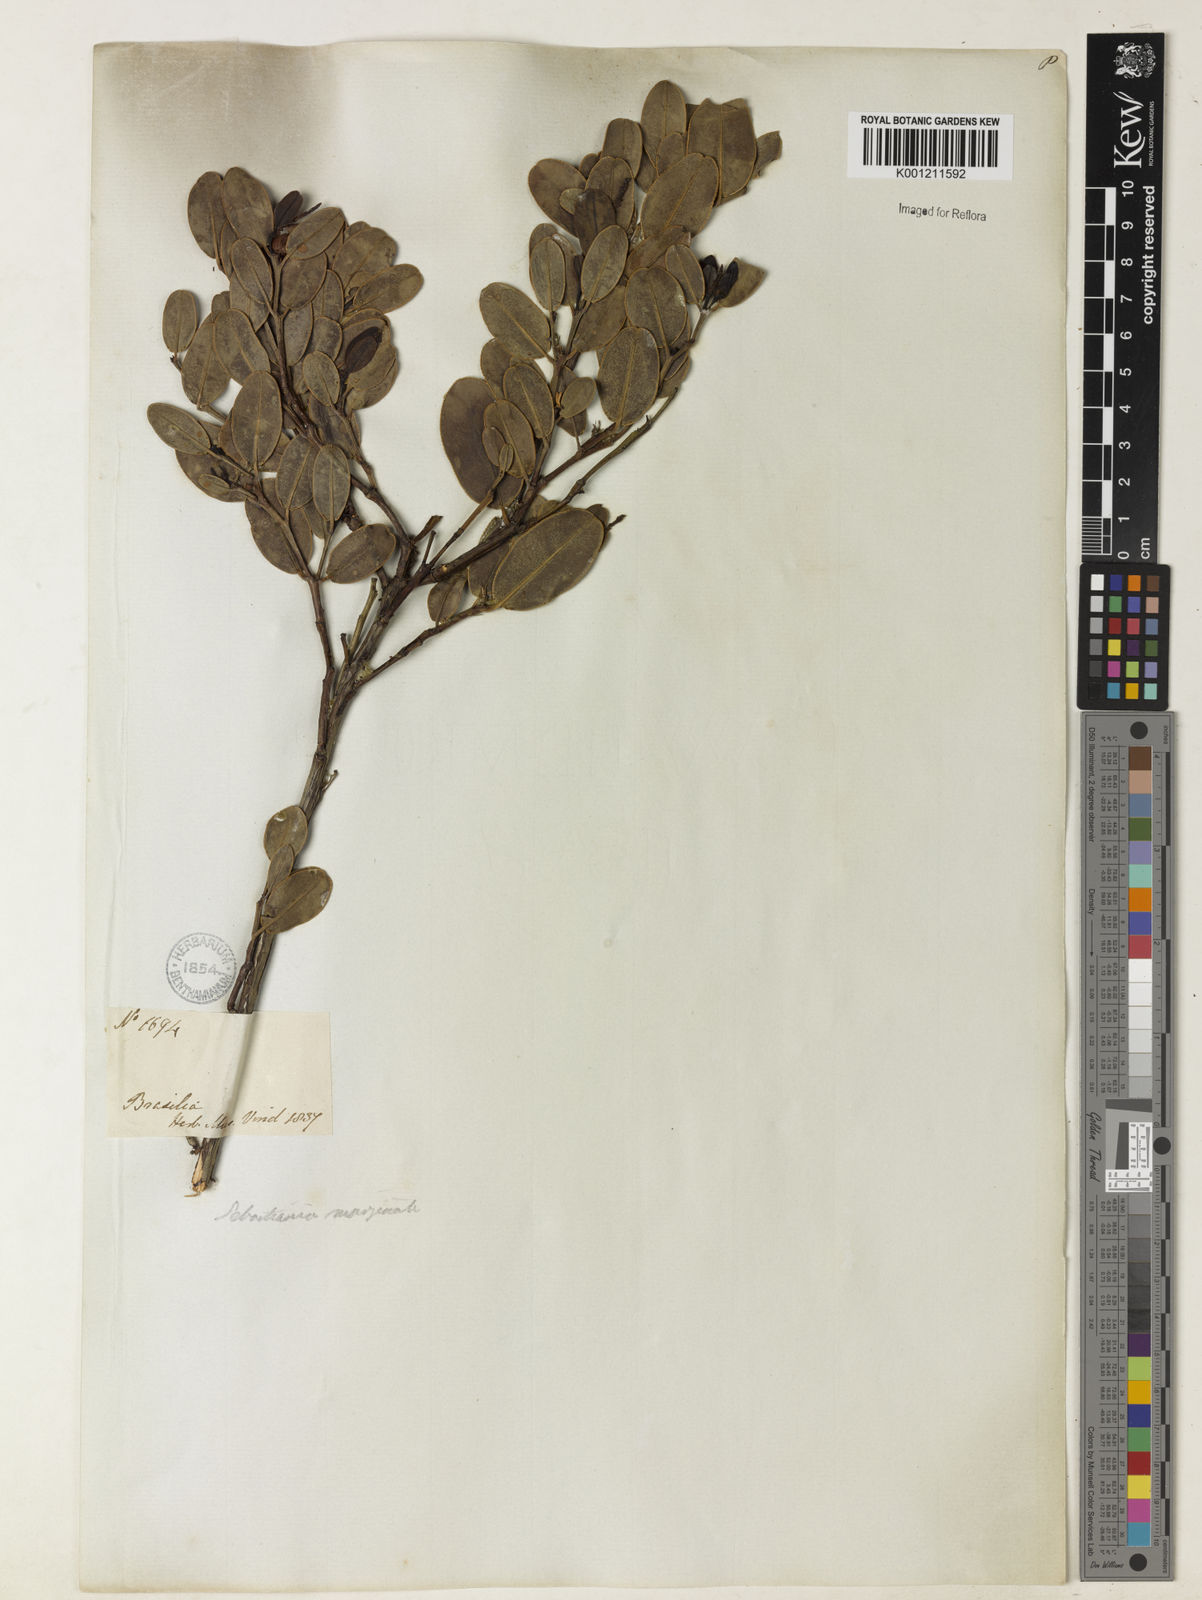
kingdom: Plantae
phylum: Tracheophyta
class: Magnoliopsida
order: Malpighiales
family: Euphorbiaceae
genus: Microstachys
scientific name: Microstachys
